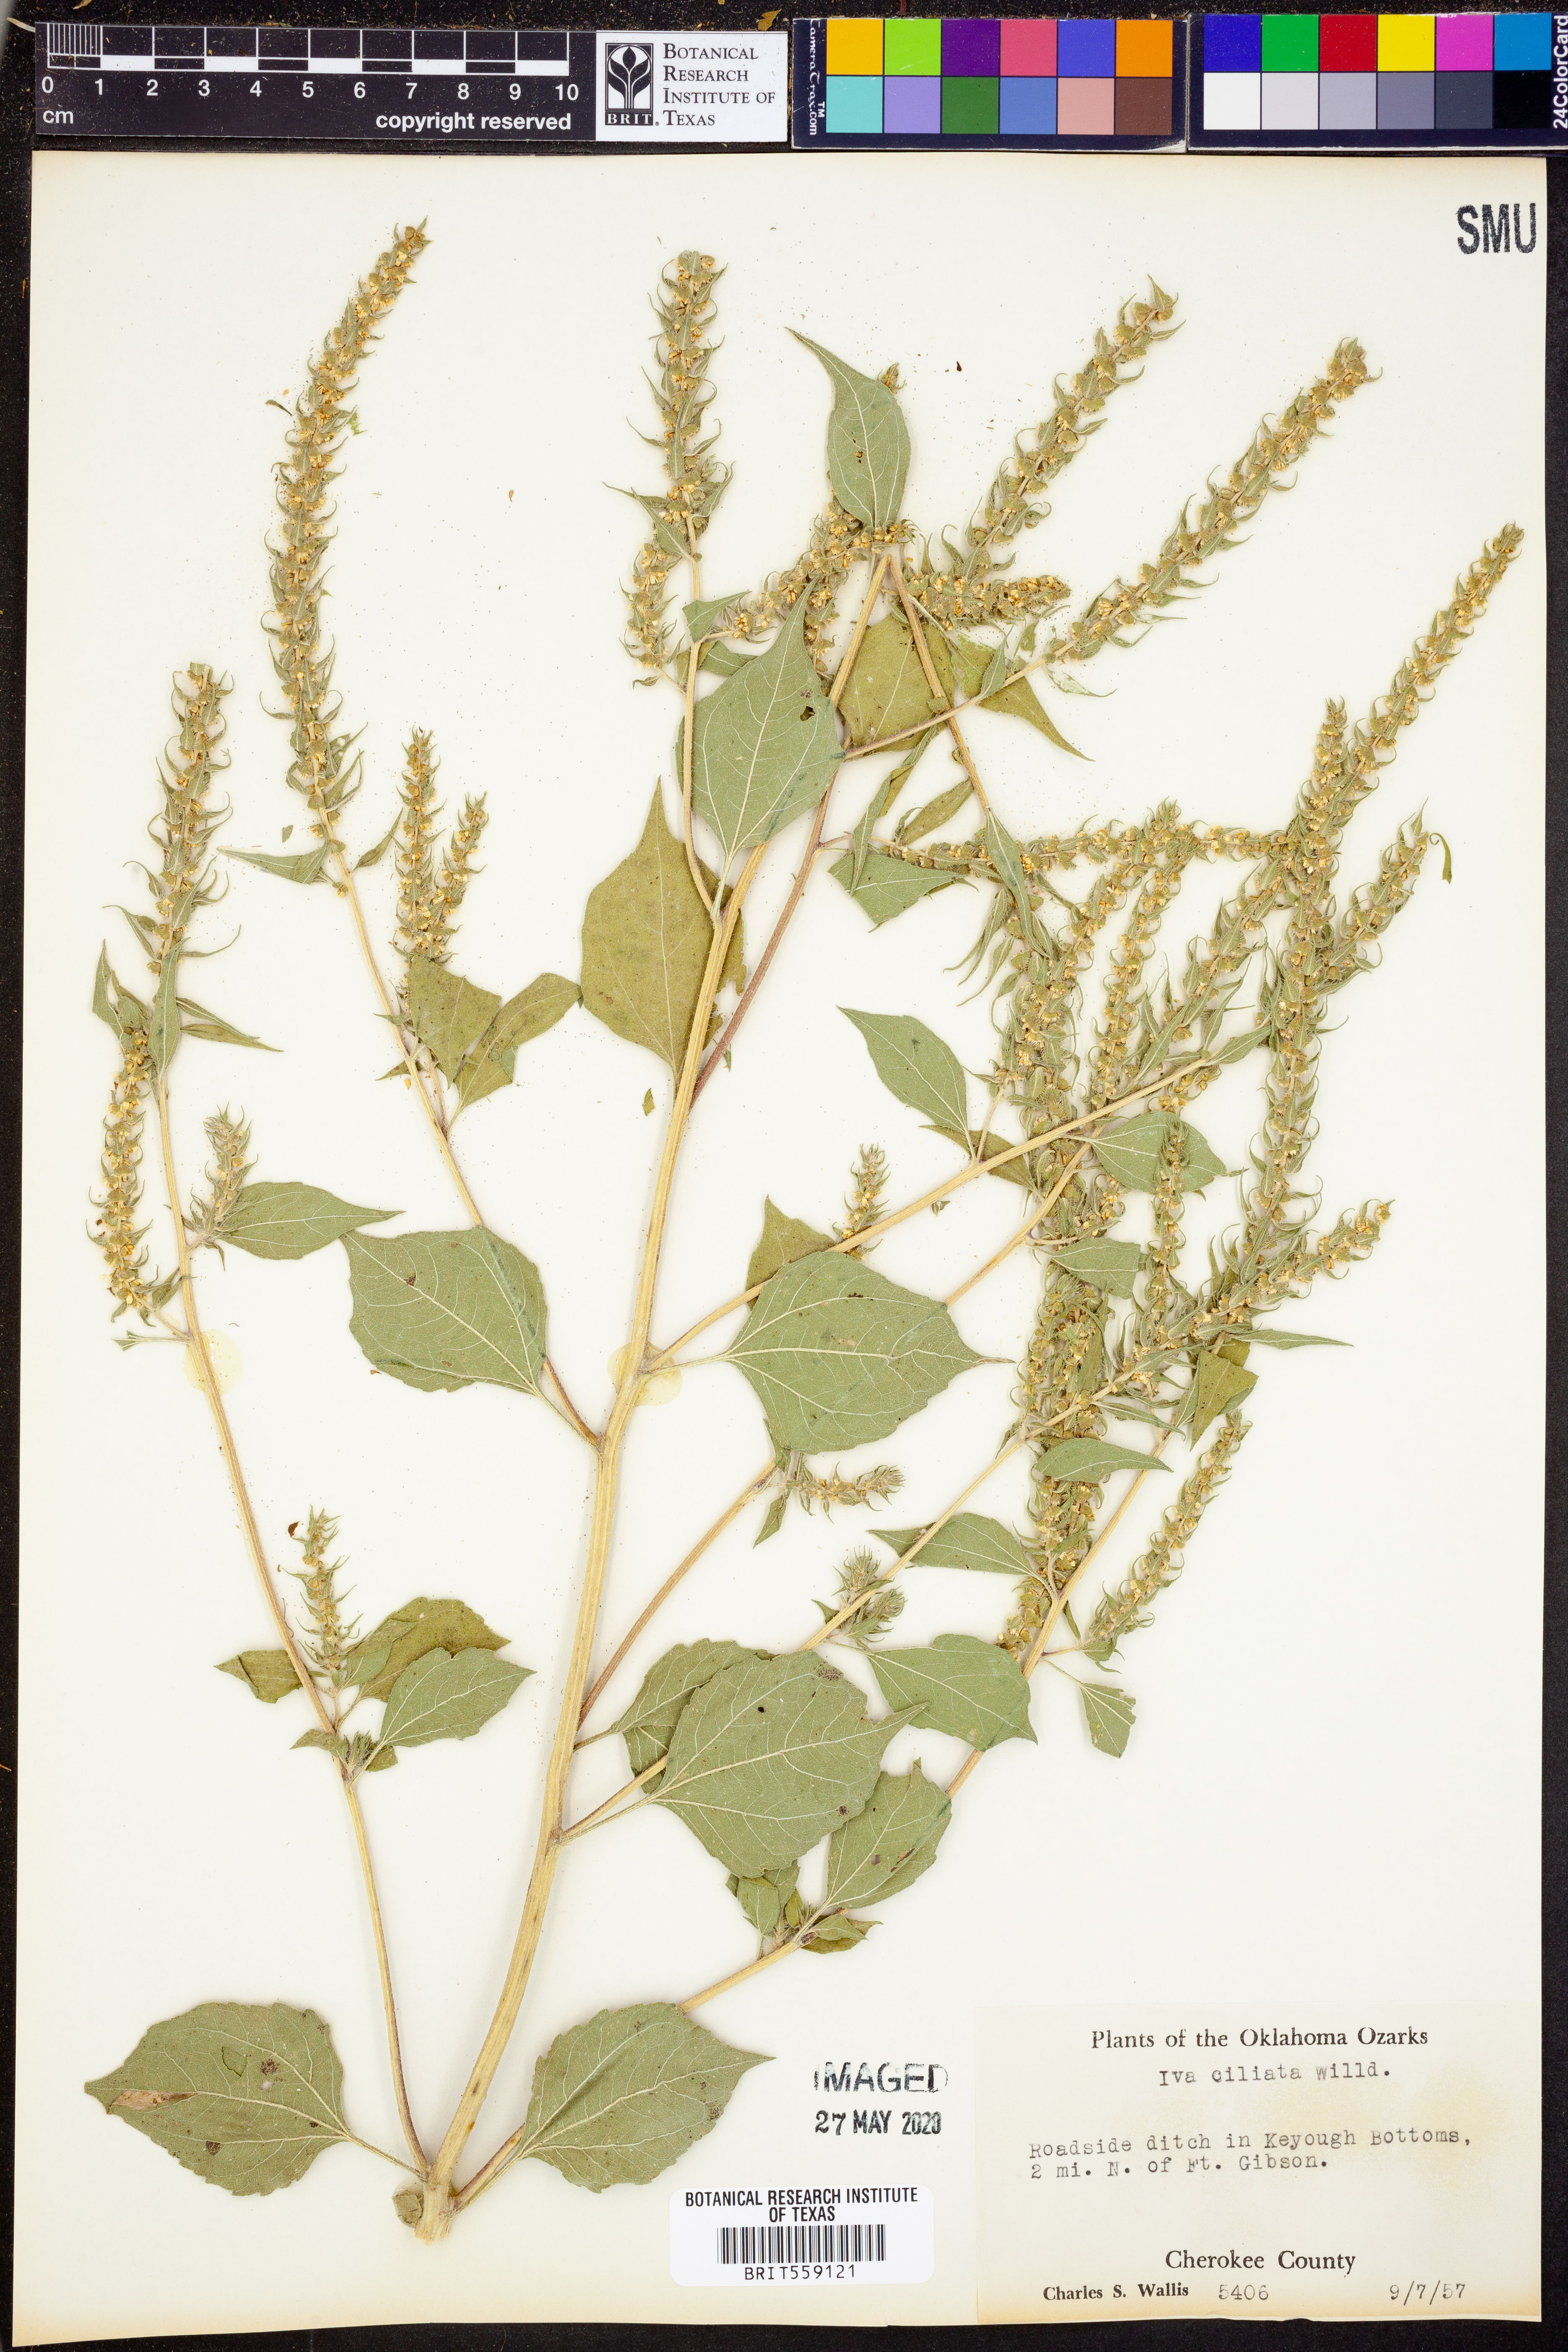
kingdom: Plantae
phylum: Tracheophyta
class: Magnoliopsida
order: Asterales
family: Asteraceae
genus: Iva
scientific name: Iva annua
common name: Marsh-elder
